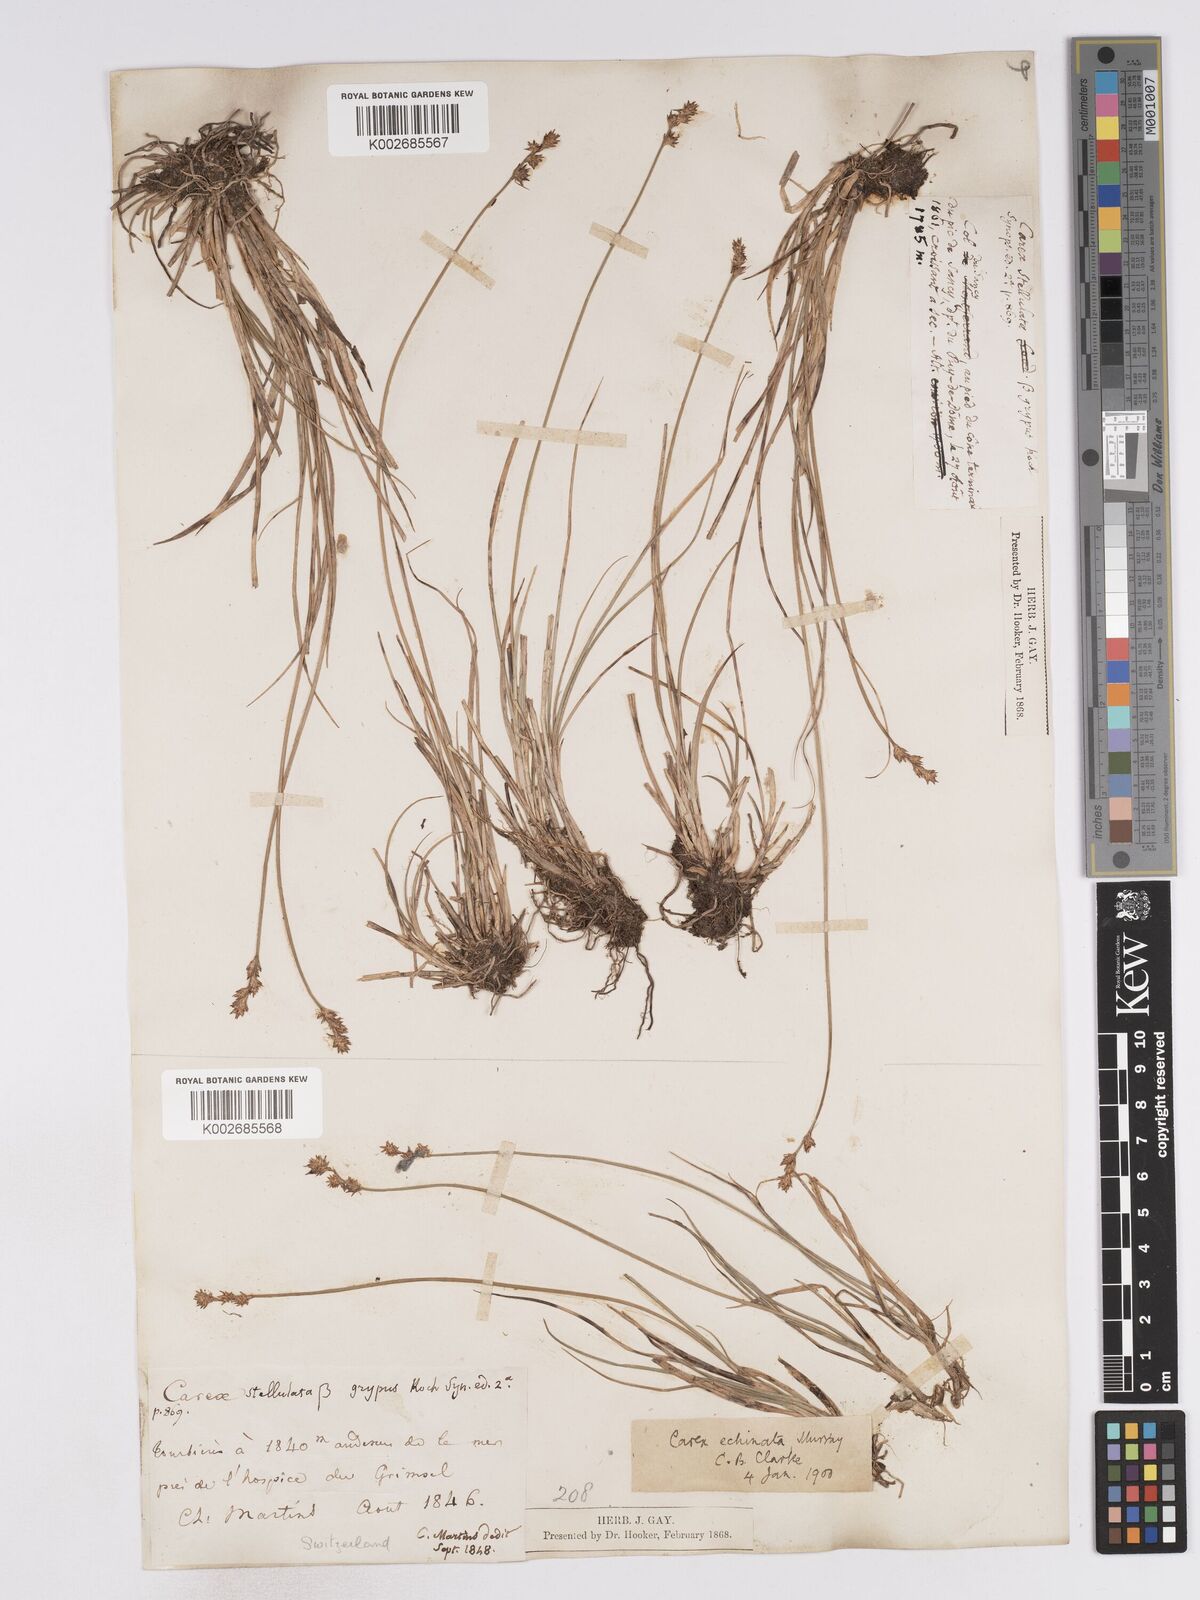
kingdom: Plantae
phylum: Tracheophyta
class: Liliopsida
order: Poales
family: Cyperaceae
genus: Carex
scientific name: Carex echinata
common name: Star sedge
